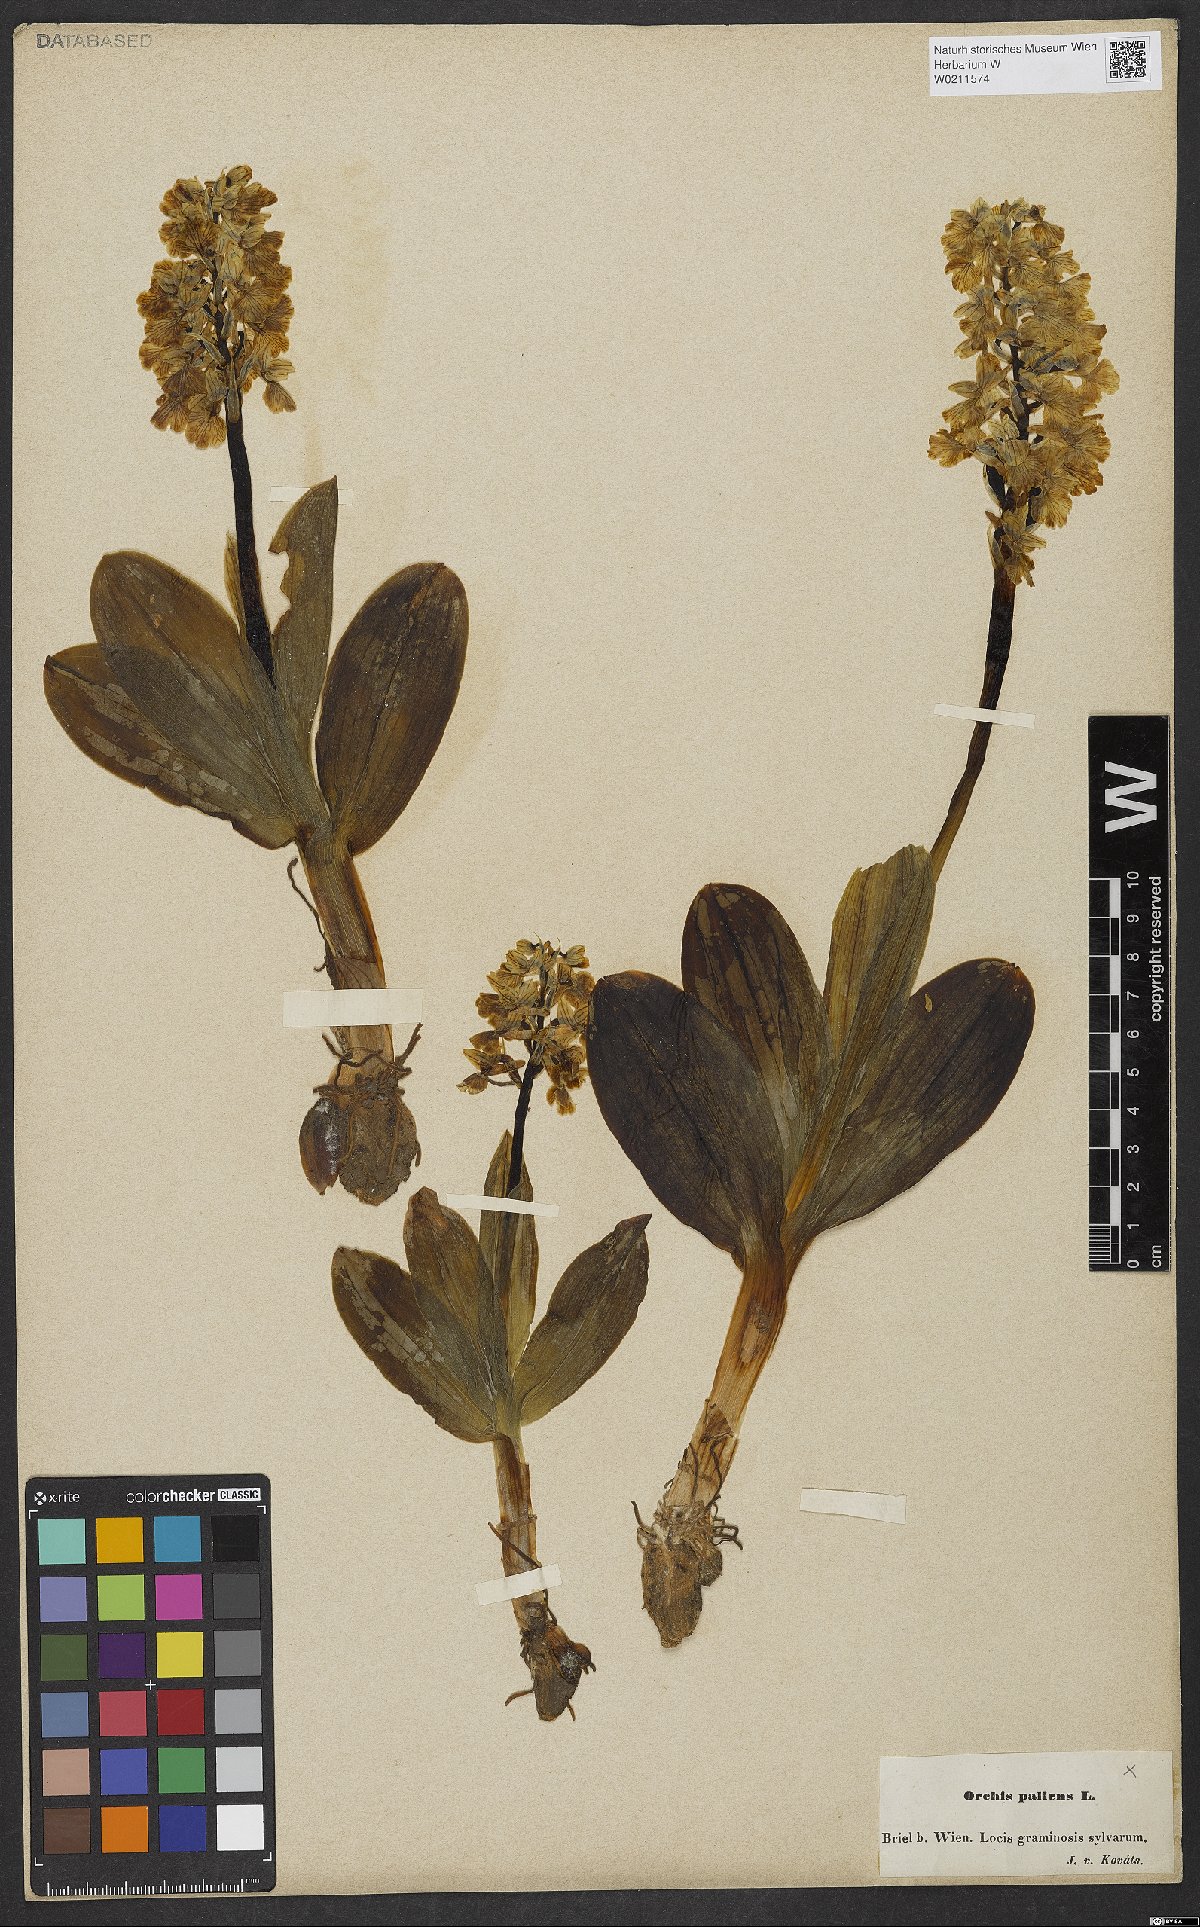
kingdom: Plantae
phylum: Tracheophyta
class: Liliopsida
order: Asparagales
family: Orchidaceae
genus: Orchis
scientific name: Orchis pallens
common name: Pale-flowered orchid
